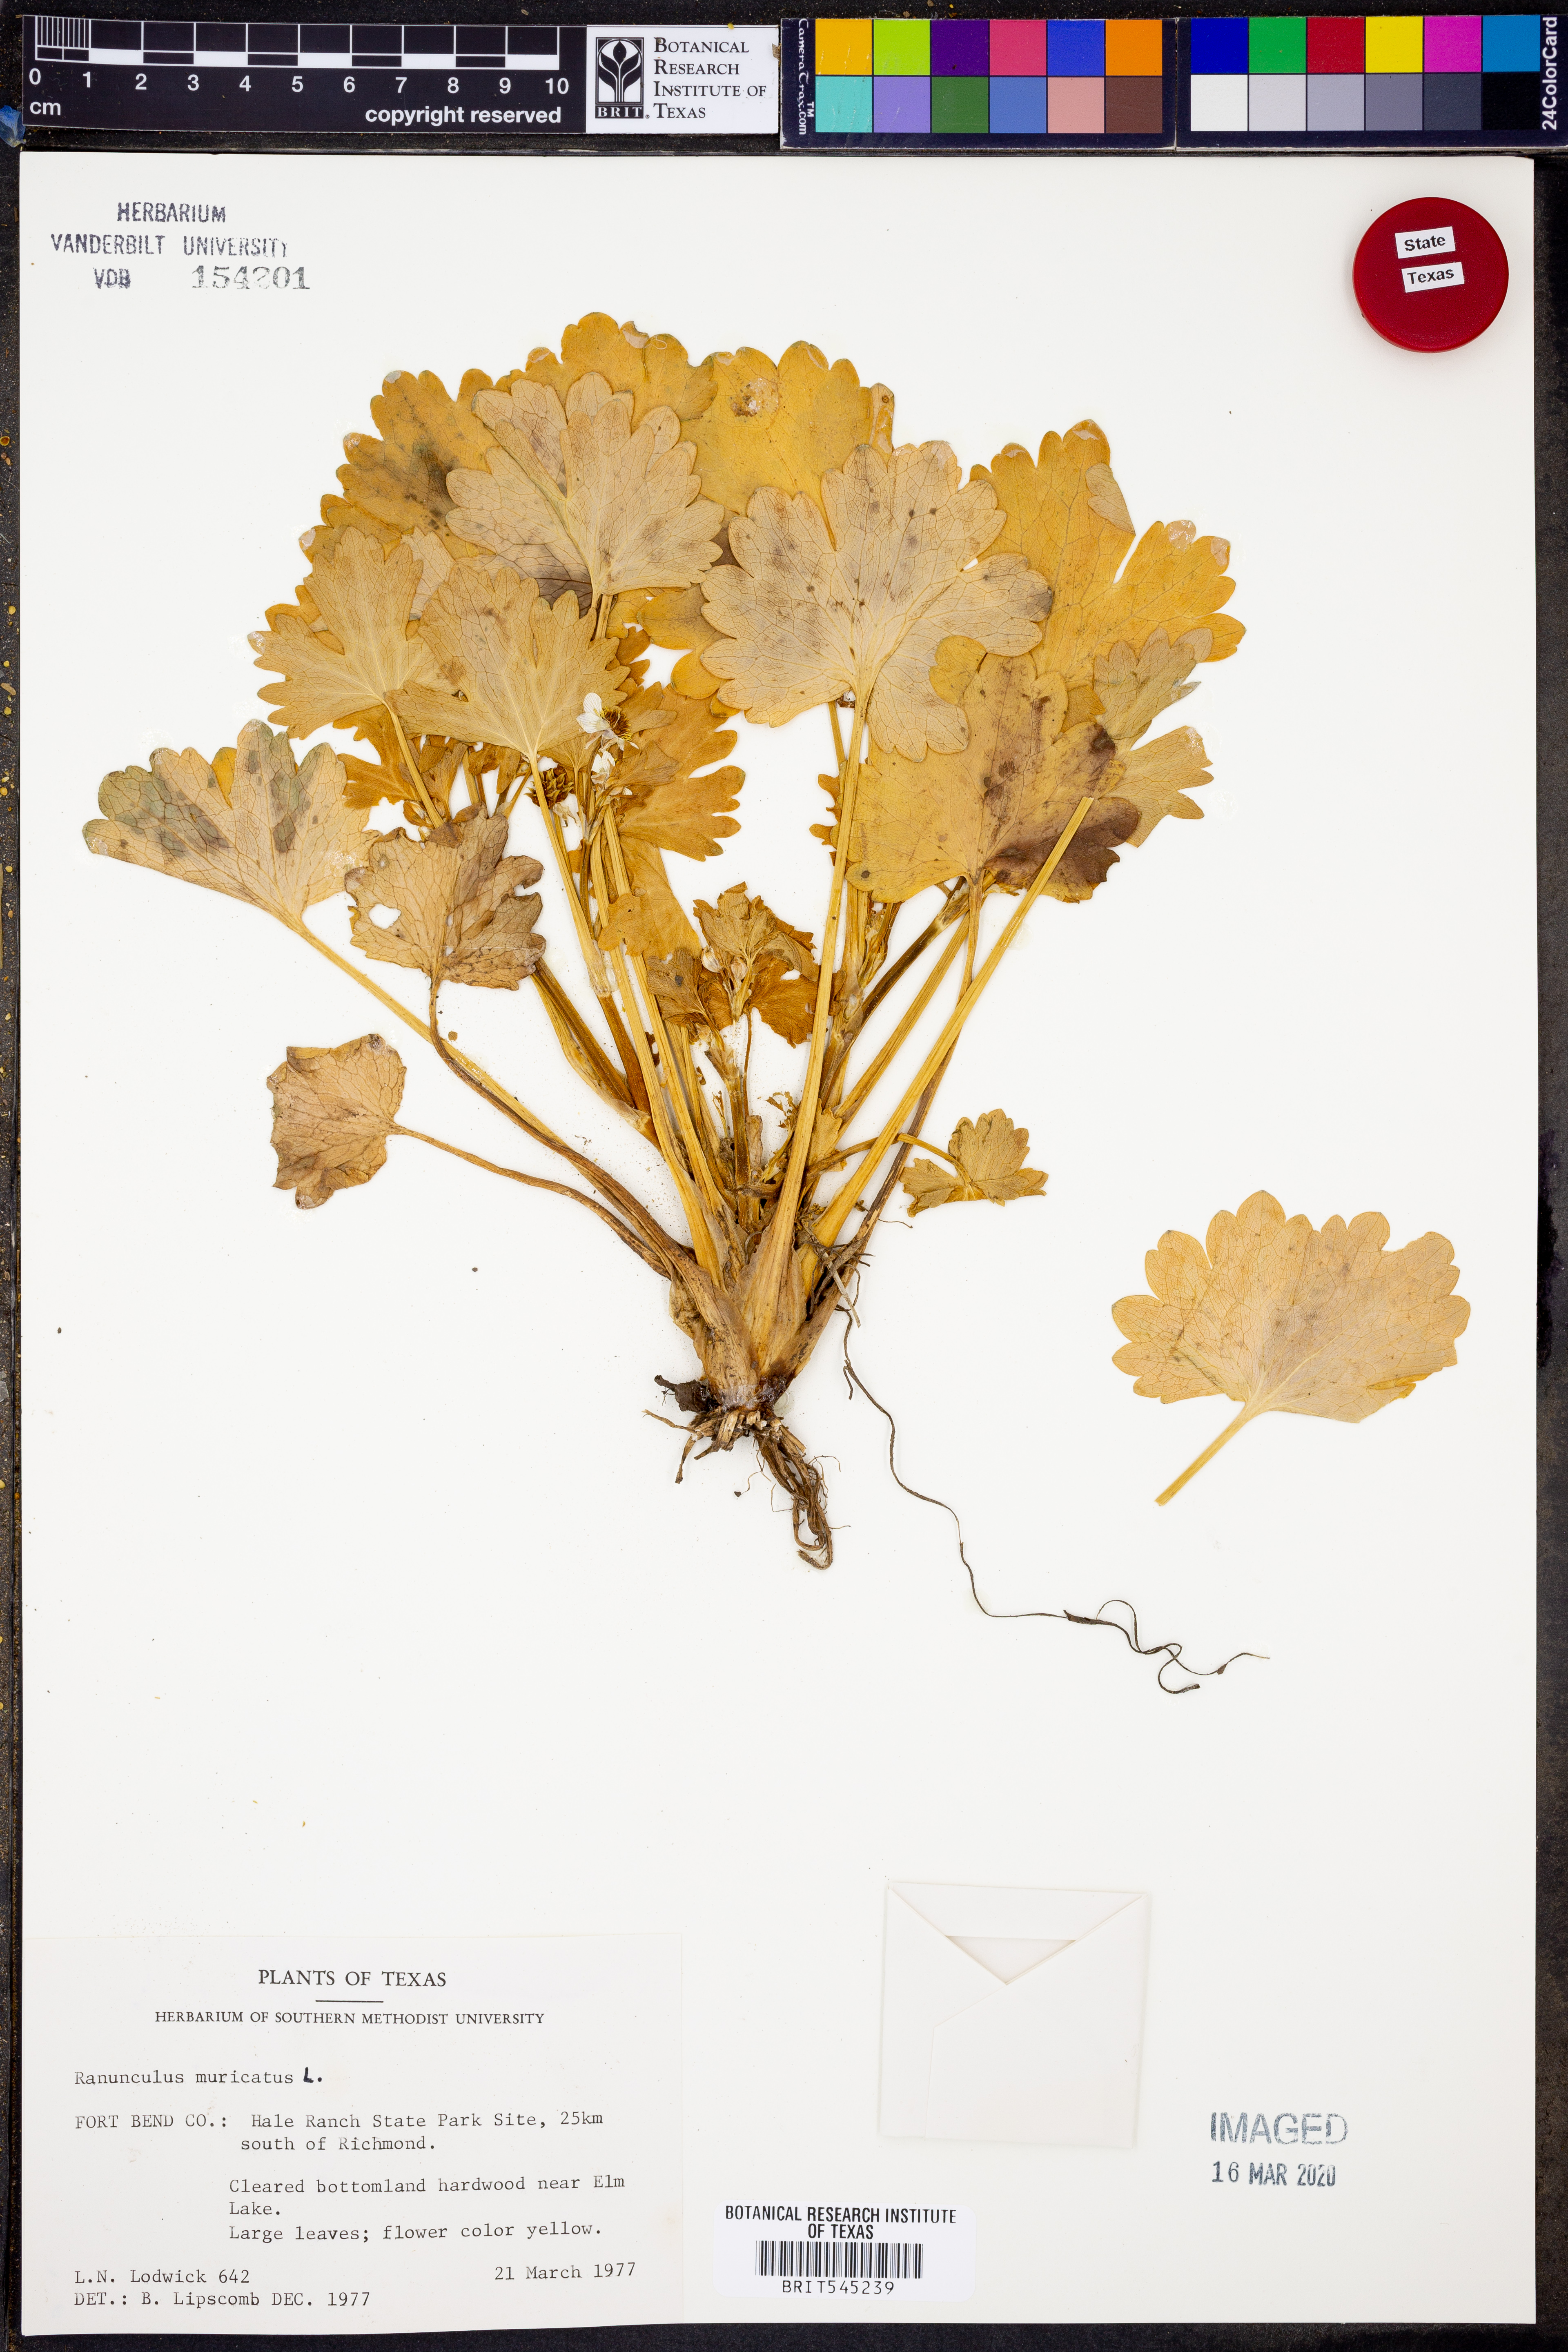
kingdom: Plantae
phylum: Tracheophyta
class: Magnoliopsida
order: Ranunculales
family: Ranunculaceae
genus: Ranunculus
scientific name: Ranunculus muricatus
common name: Rough-fruited buttercup
